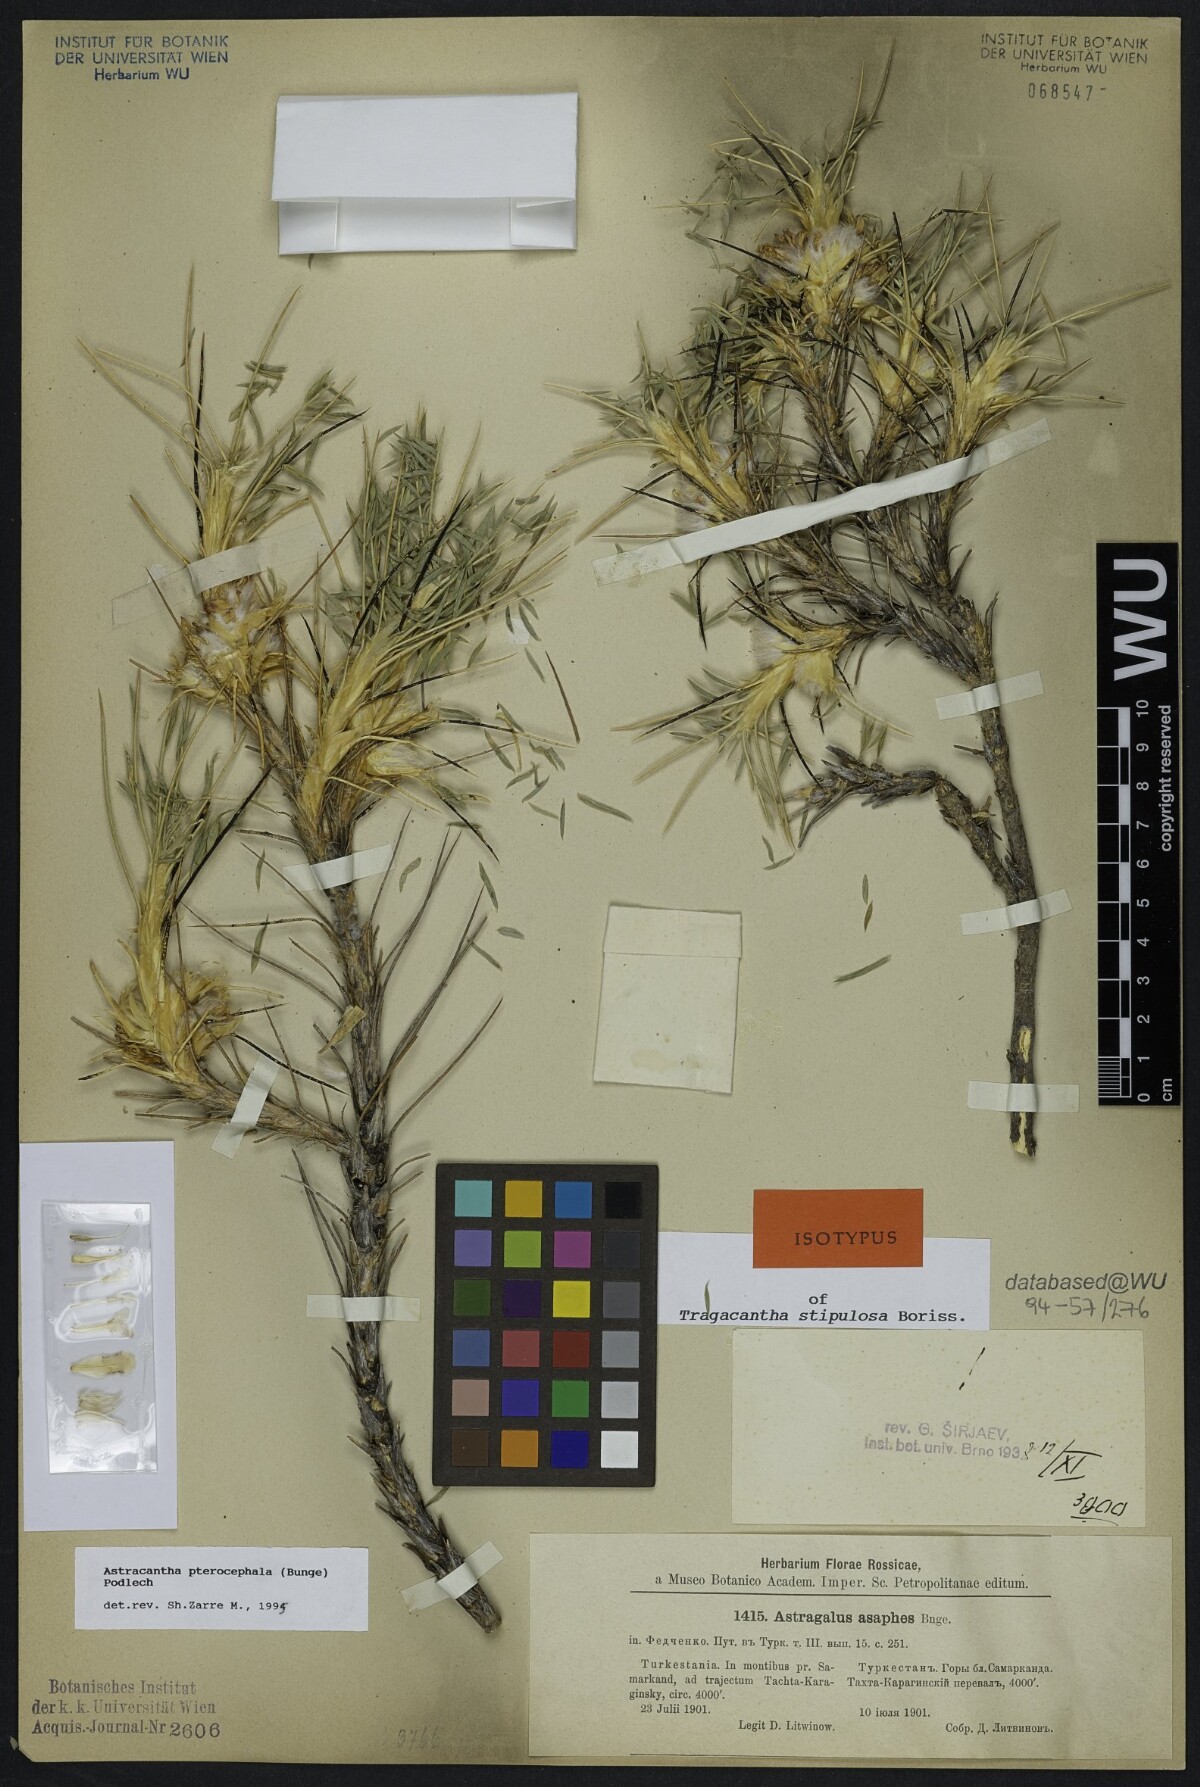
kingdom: Plantae
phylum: Tracheophyta
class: Magnoliopsida
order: Fabales
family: Fabaceae
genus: Astragalus
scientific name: Astragalus pterocephalus
